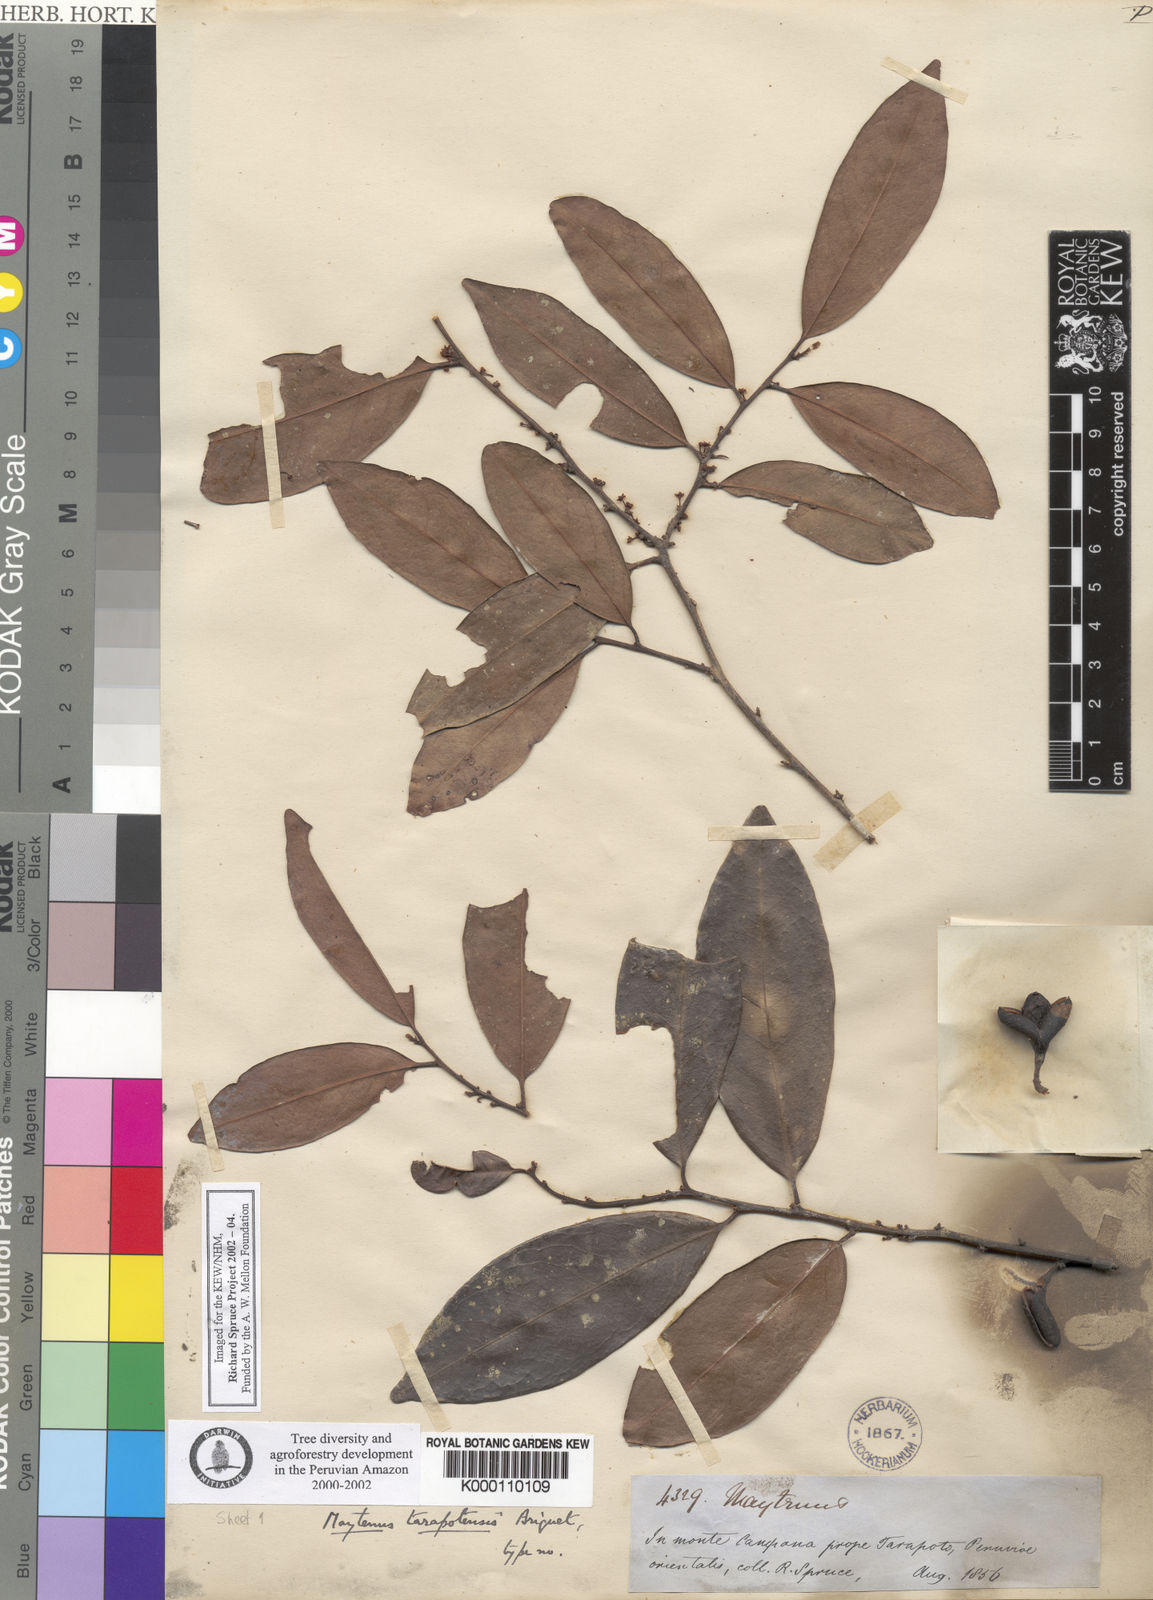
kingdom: Plantae
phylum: Tracheophyta
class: Magnoliopsida
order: Celastrales
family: Celastraceae
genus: Monteverdia
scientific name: Monteverdia macrocarpa
